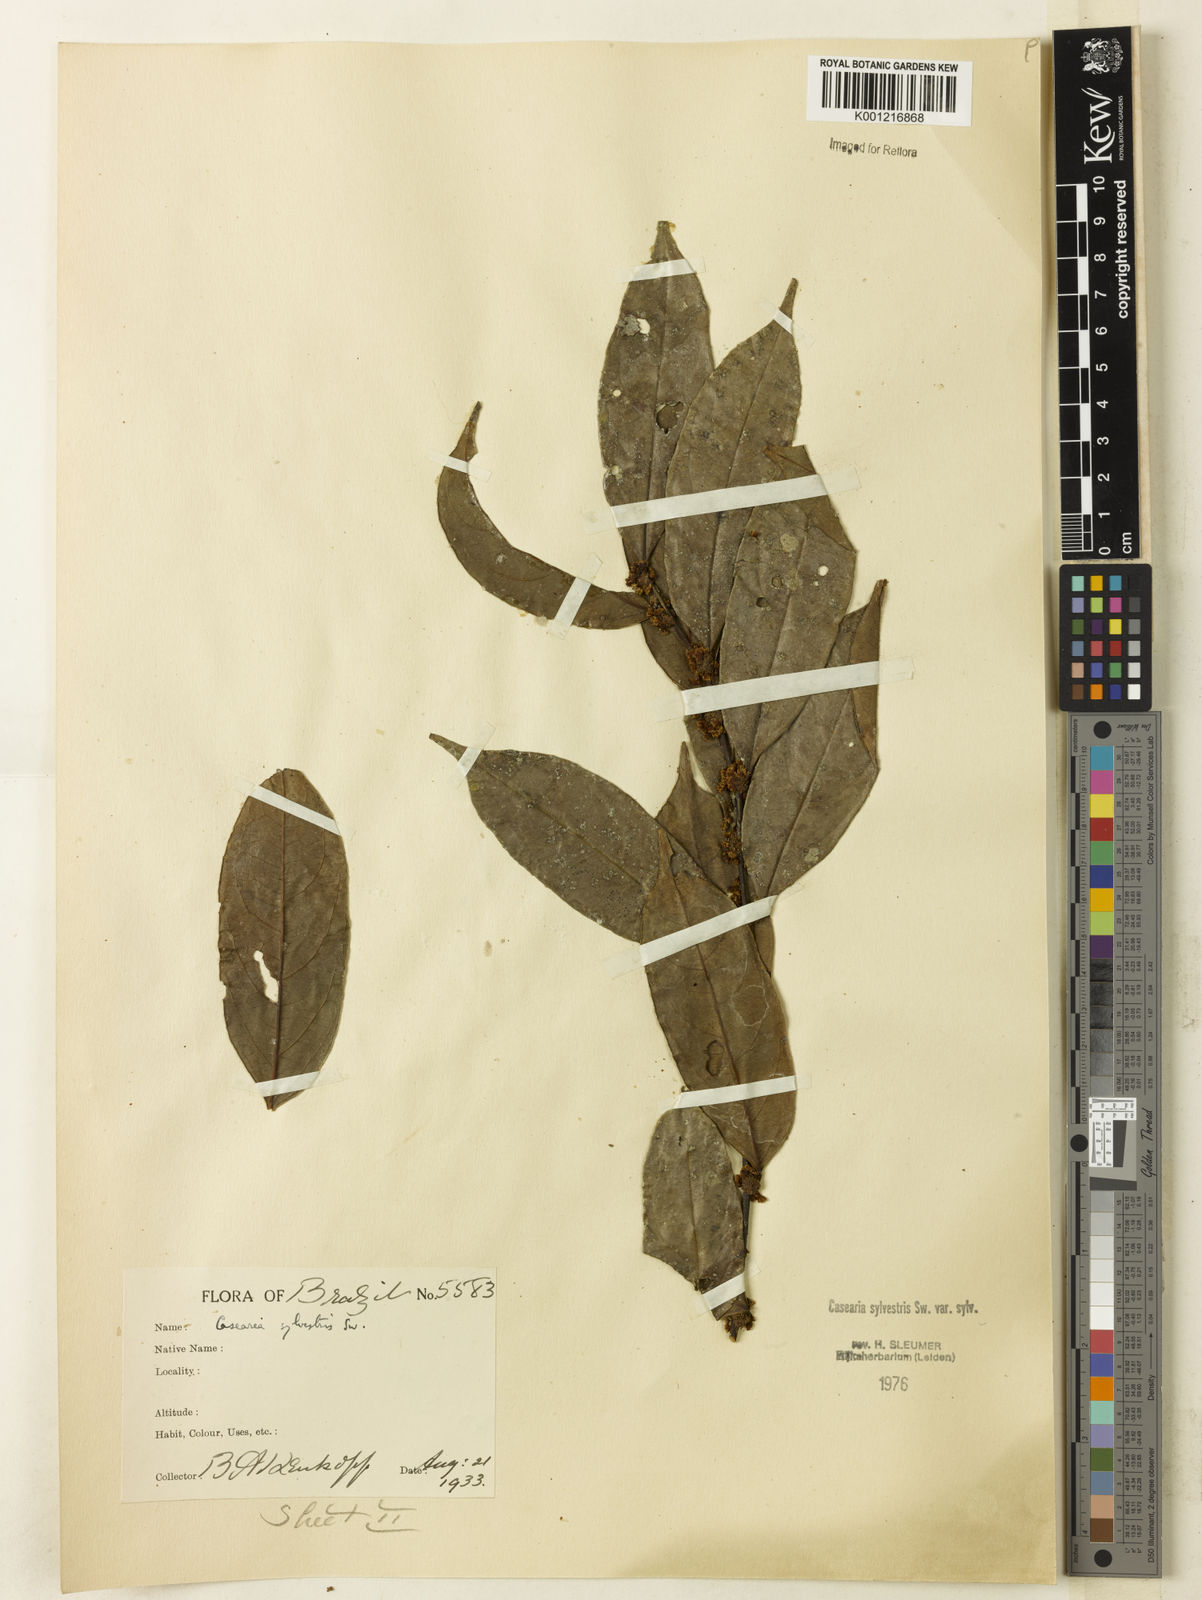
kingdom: Plantae
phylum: Tracheophyta
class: Magnoliopsida
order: Malpighiales
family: Salicaceae
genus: Casearia
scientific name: Casearia sylvestris
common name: Wild sage
